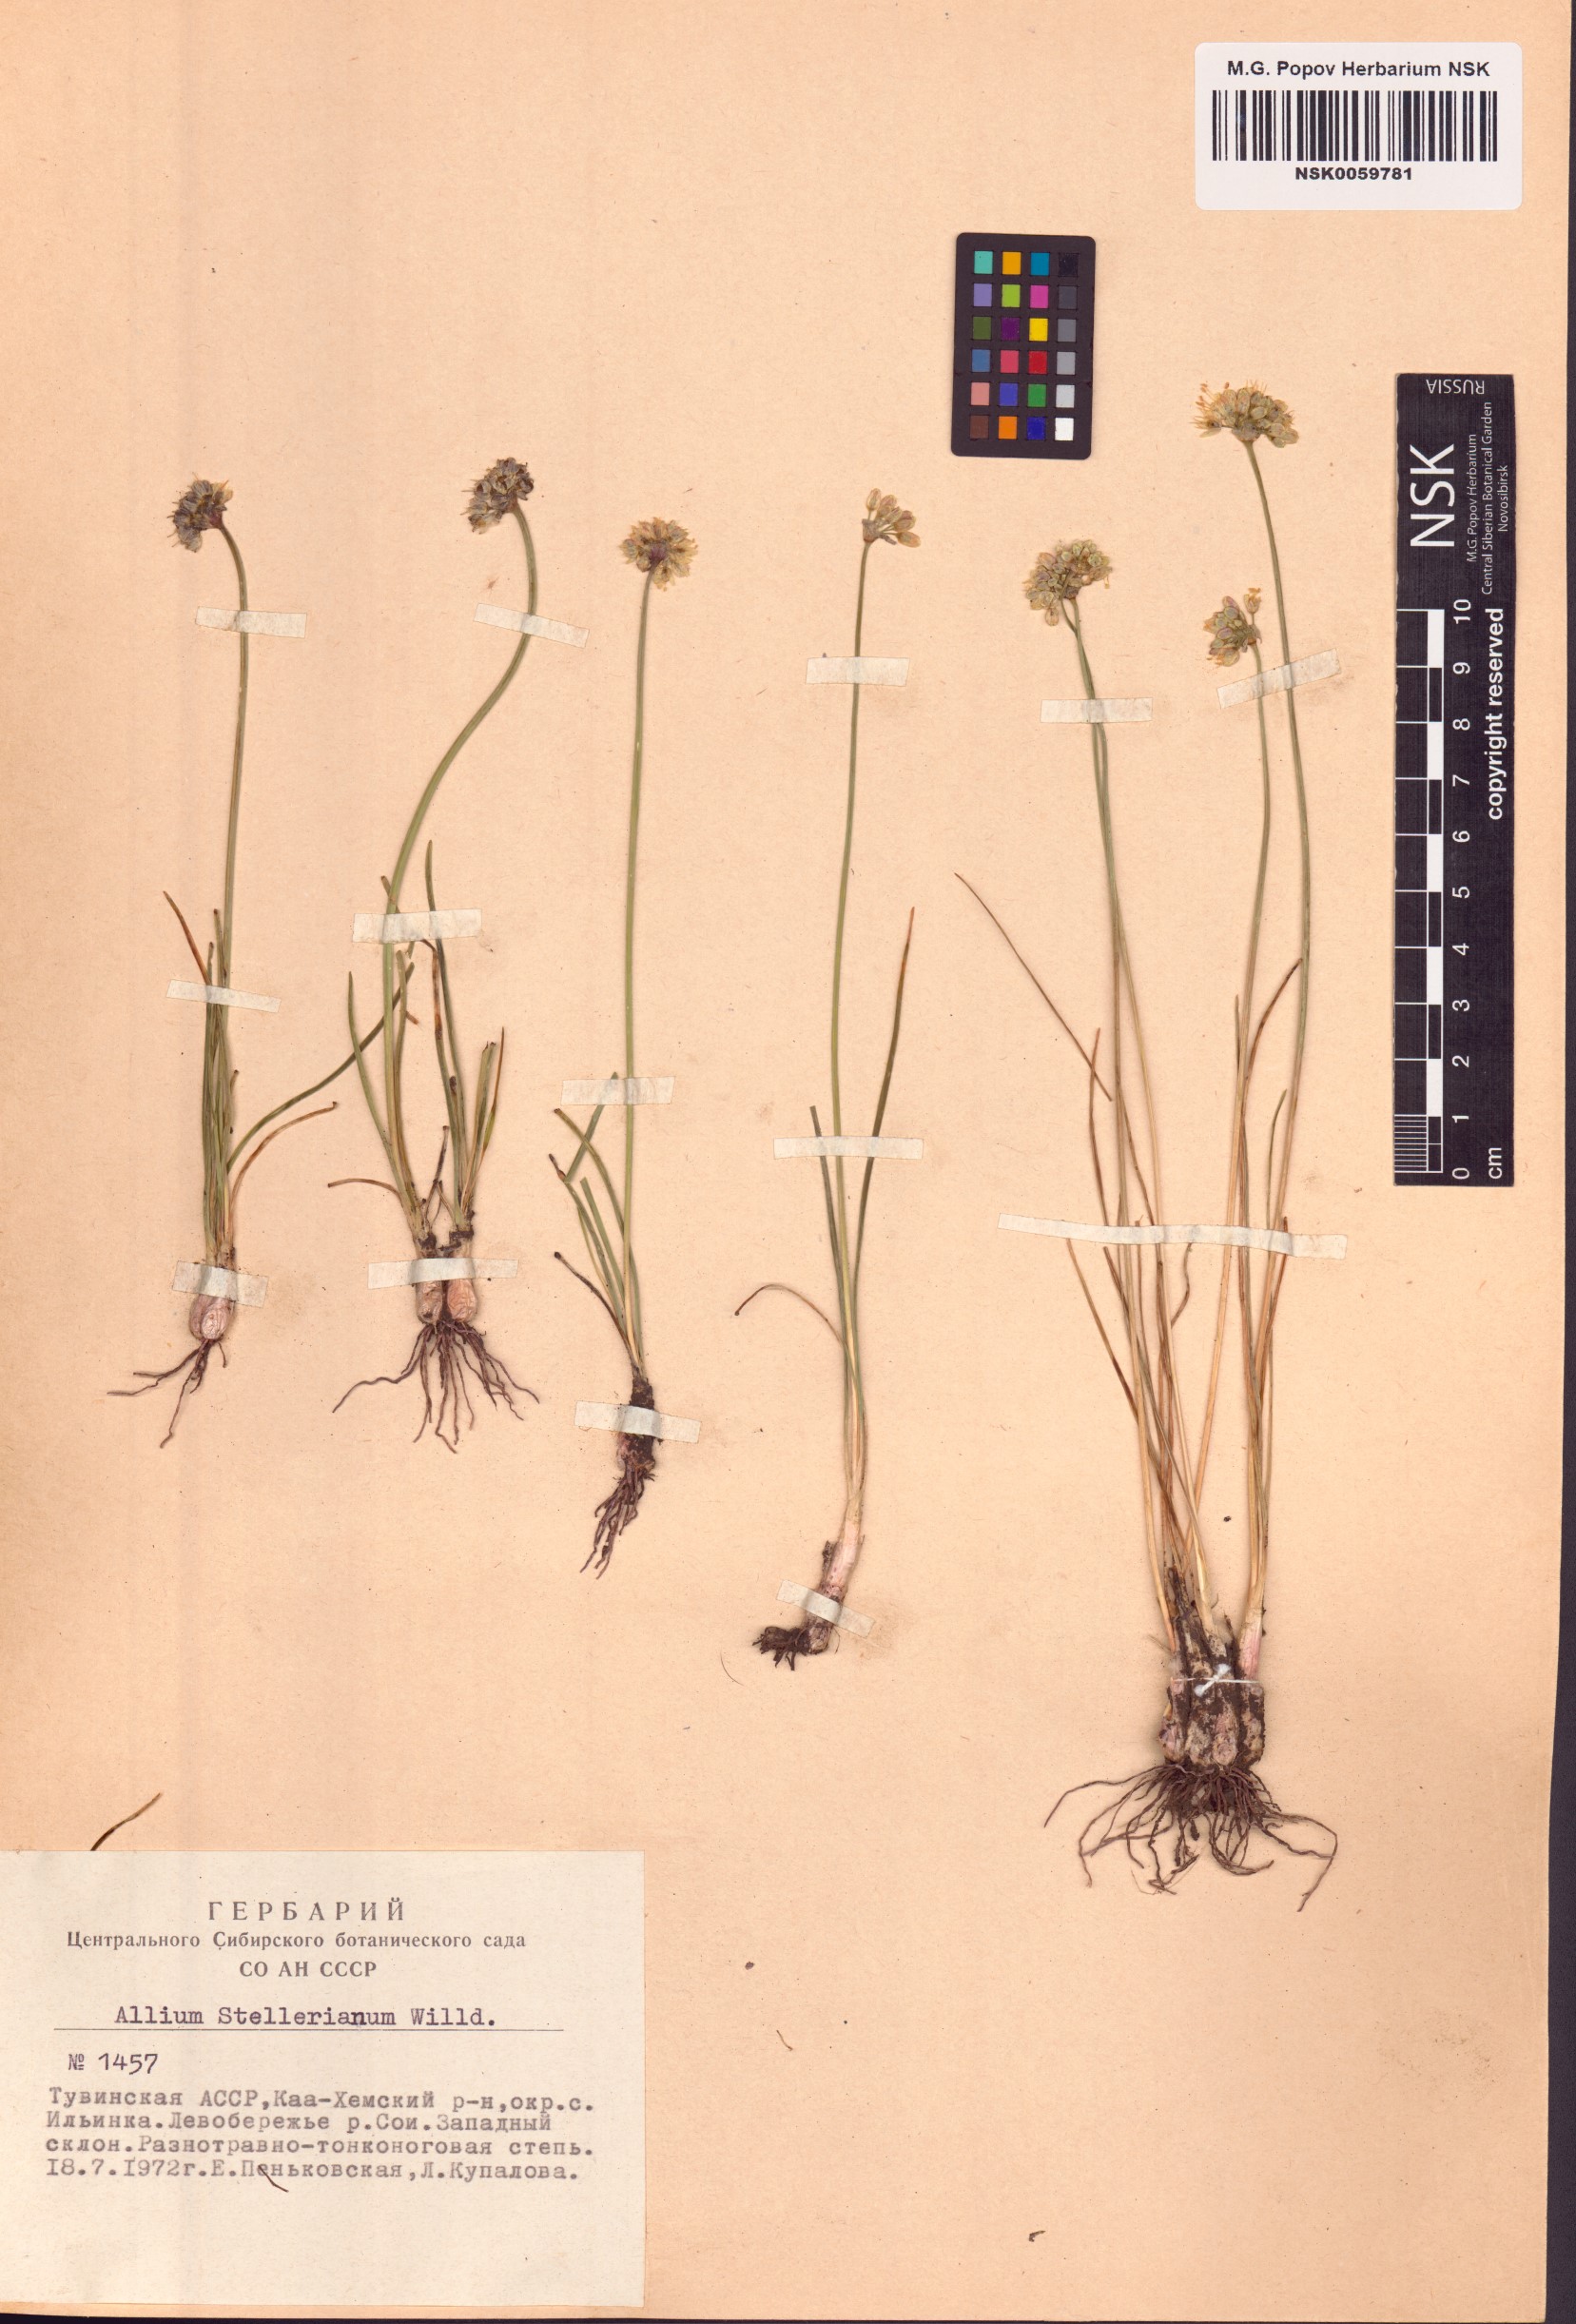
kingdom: Plantae
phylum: Tracheophyta
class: Liliopsida
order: Asparagales
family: Amaryllidaceae
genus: Allium
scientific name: Allium stellerianum
